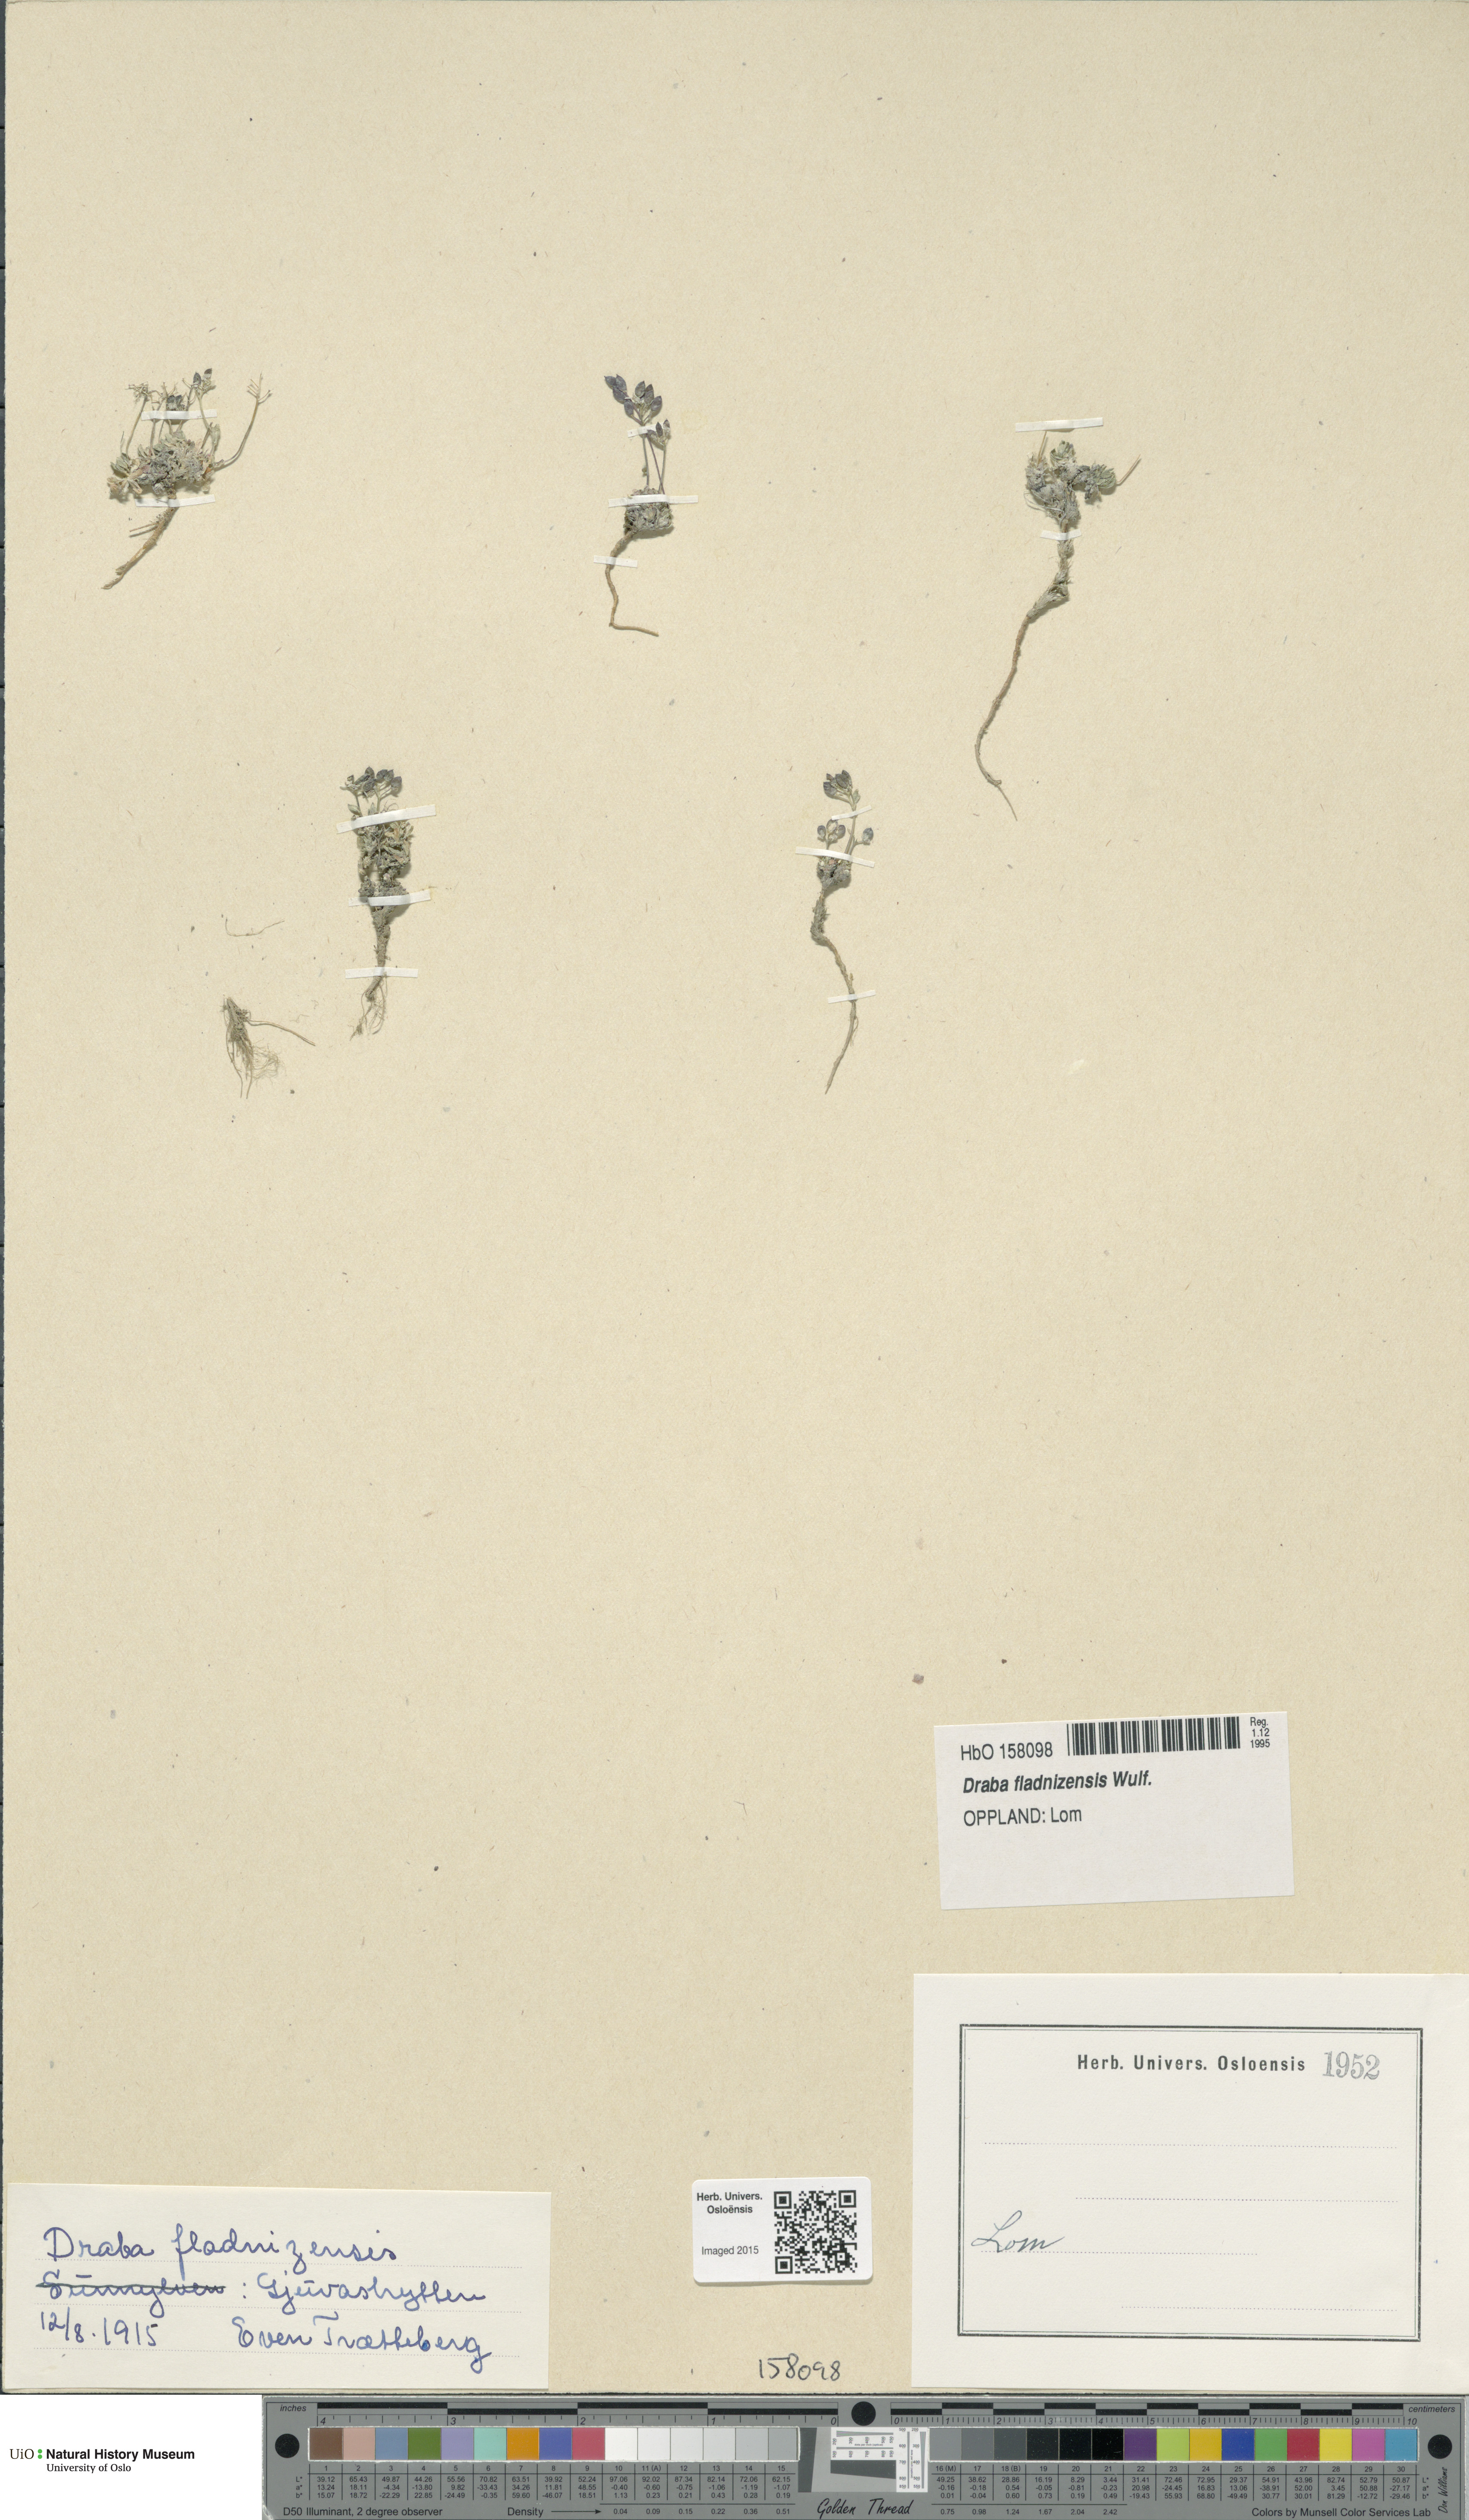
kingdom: Plantae
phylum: Tracheophyta
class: Magnoliopsida
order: Brassicales
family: Brassicaceae
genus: Draba
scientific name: Draba fladnizensis
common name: Austrian draba
